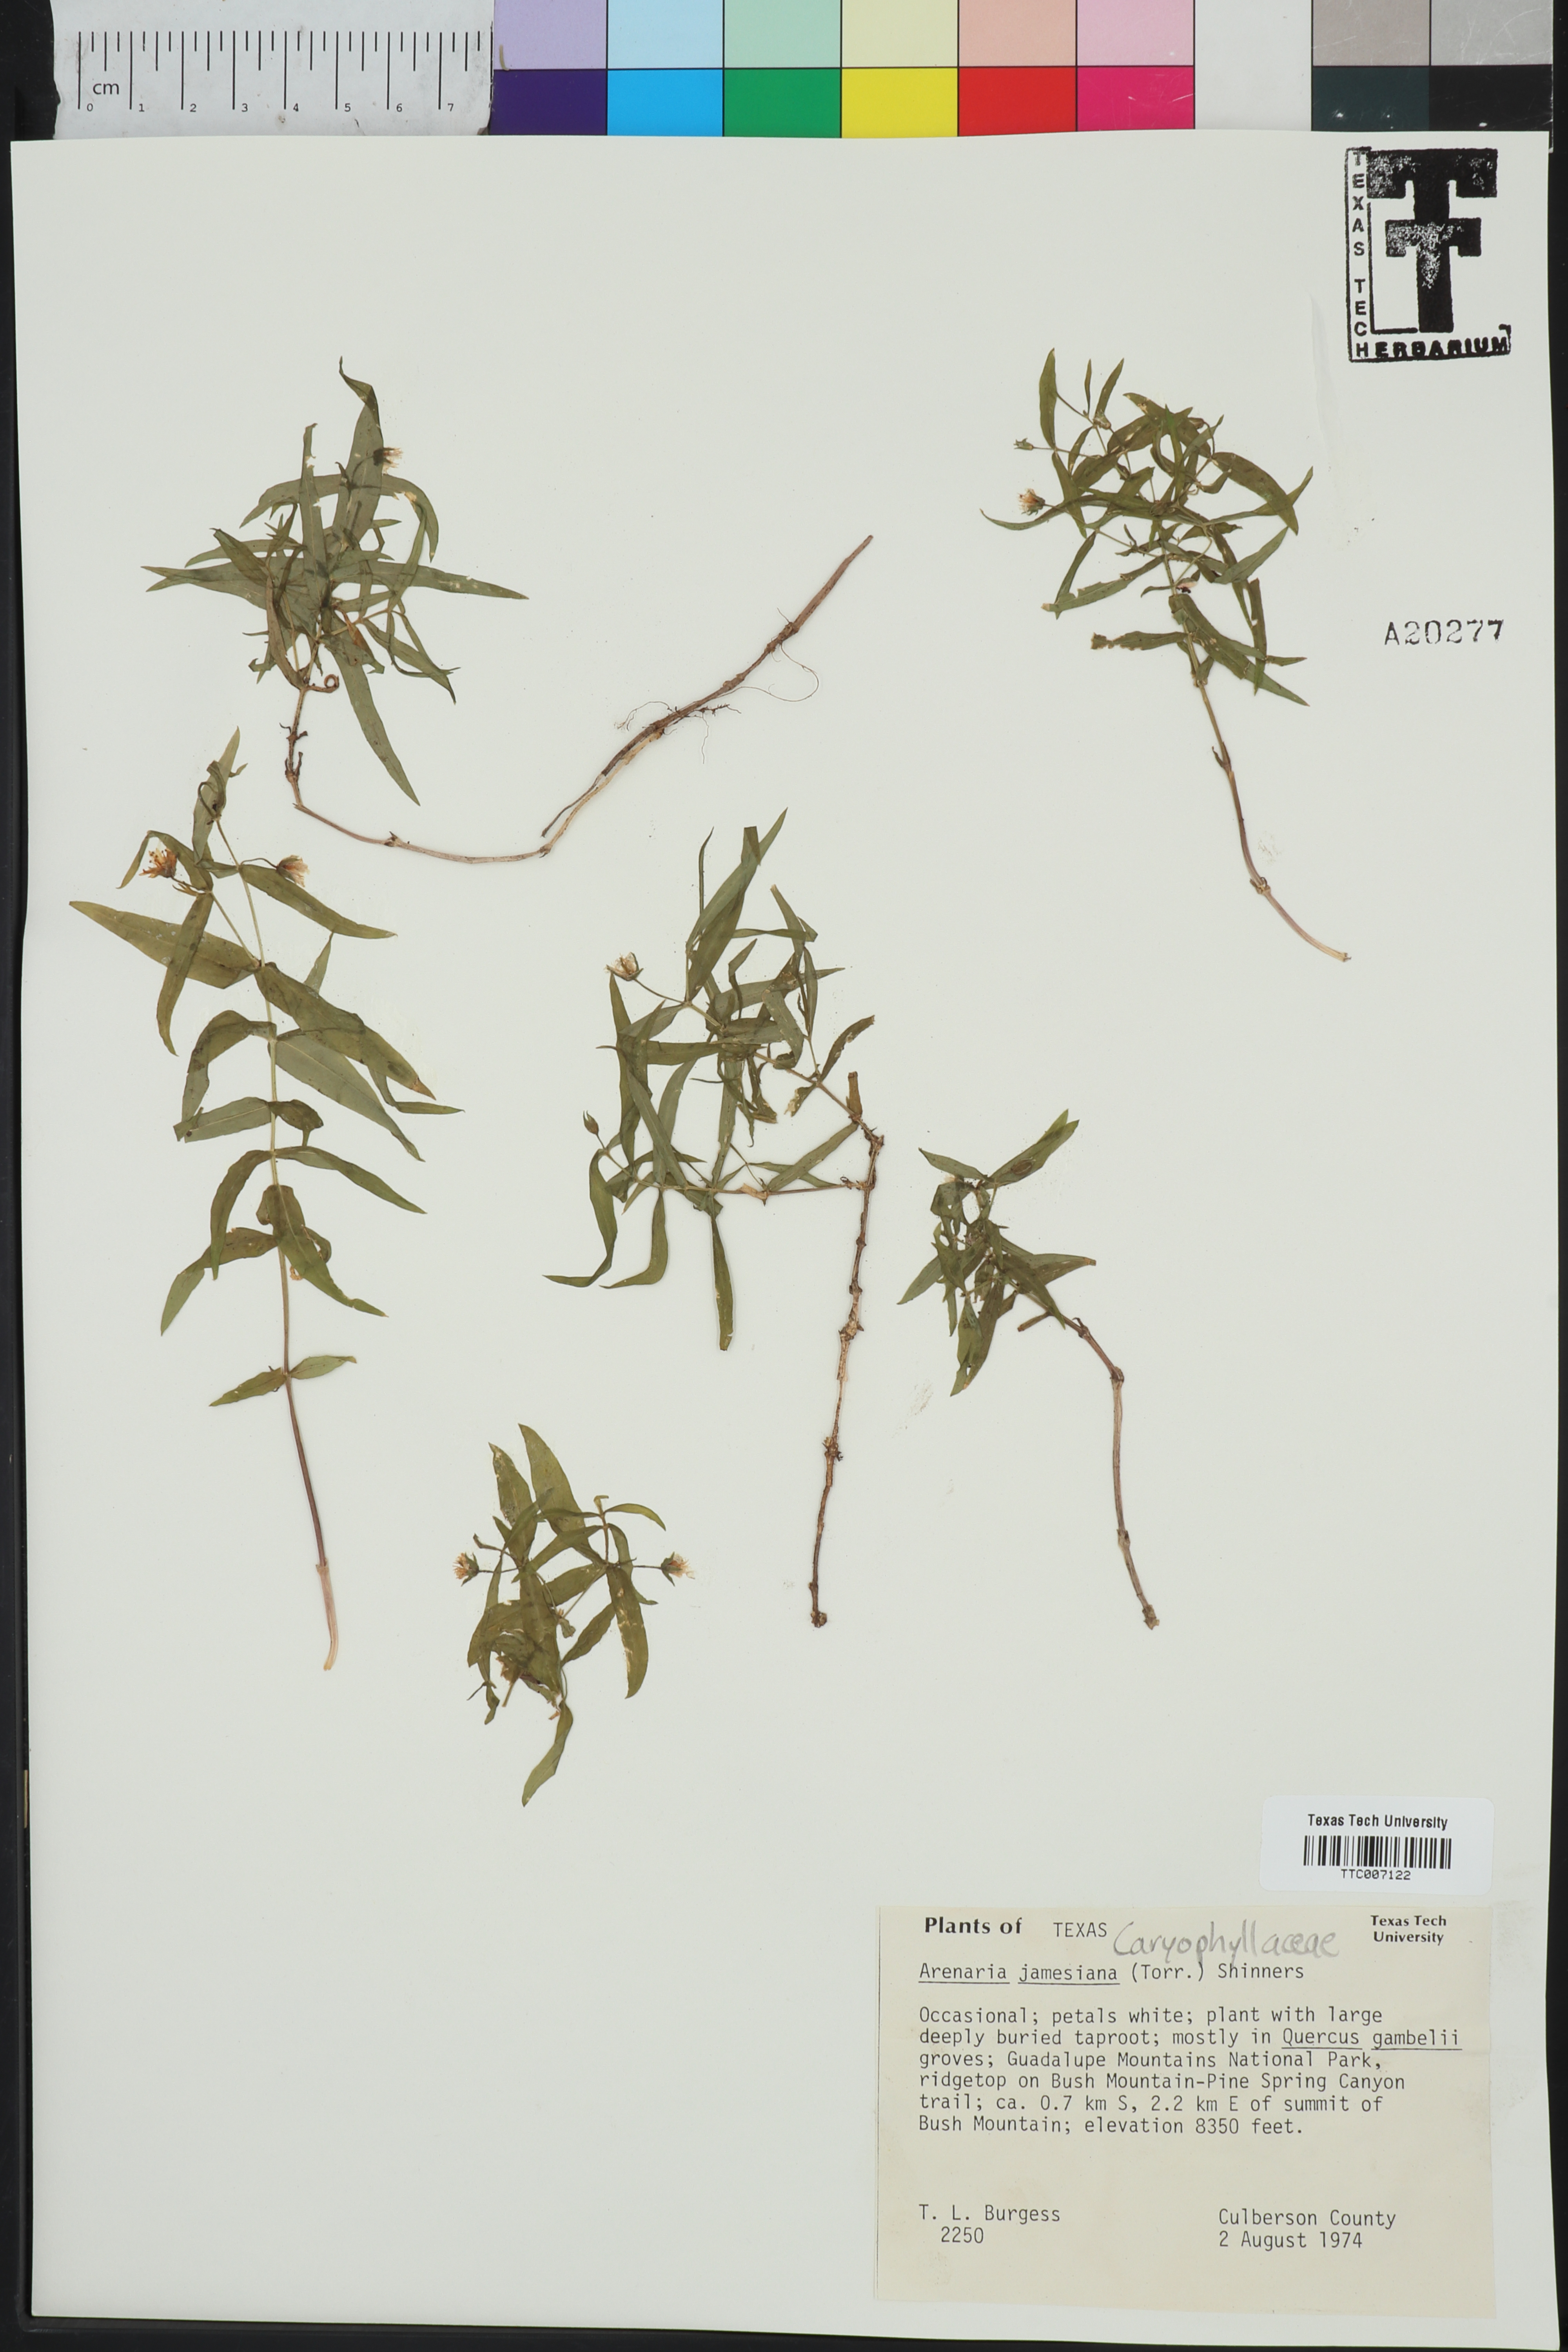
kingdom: Plantae
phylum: Tracheophyta
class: Magnoliopsida
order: Caryophyllales
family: Caryophyllaceae
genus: Schizotechium
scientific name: Schizotechium jamesianum
